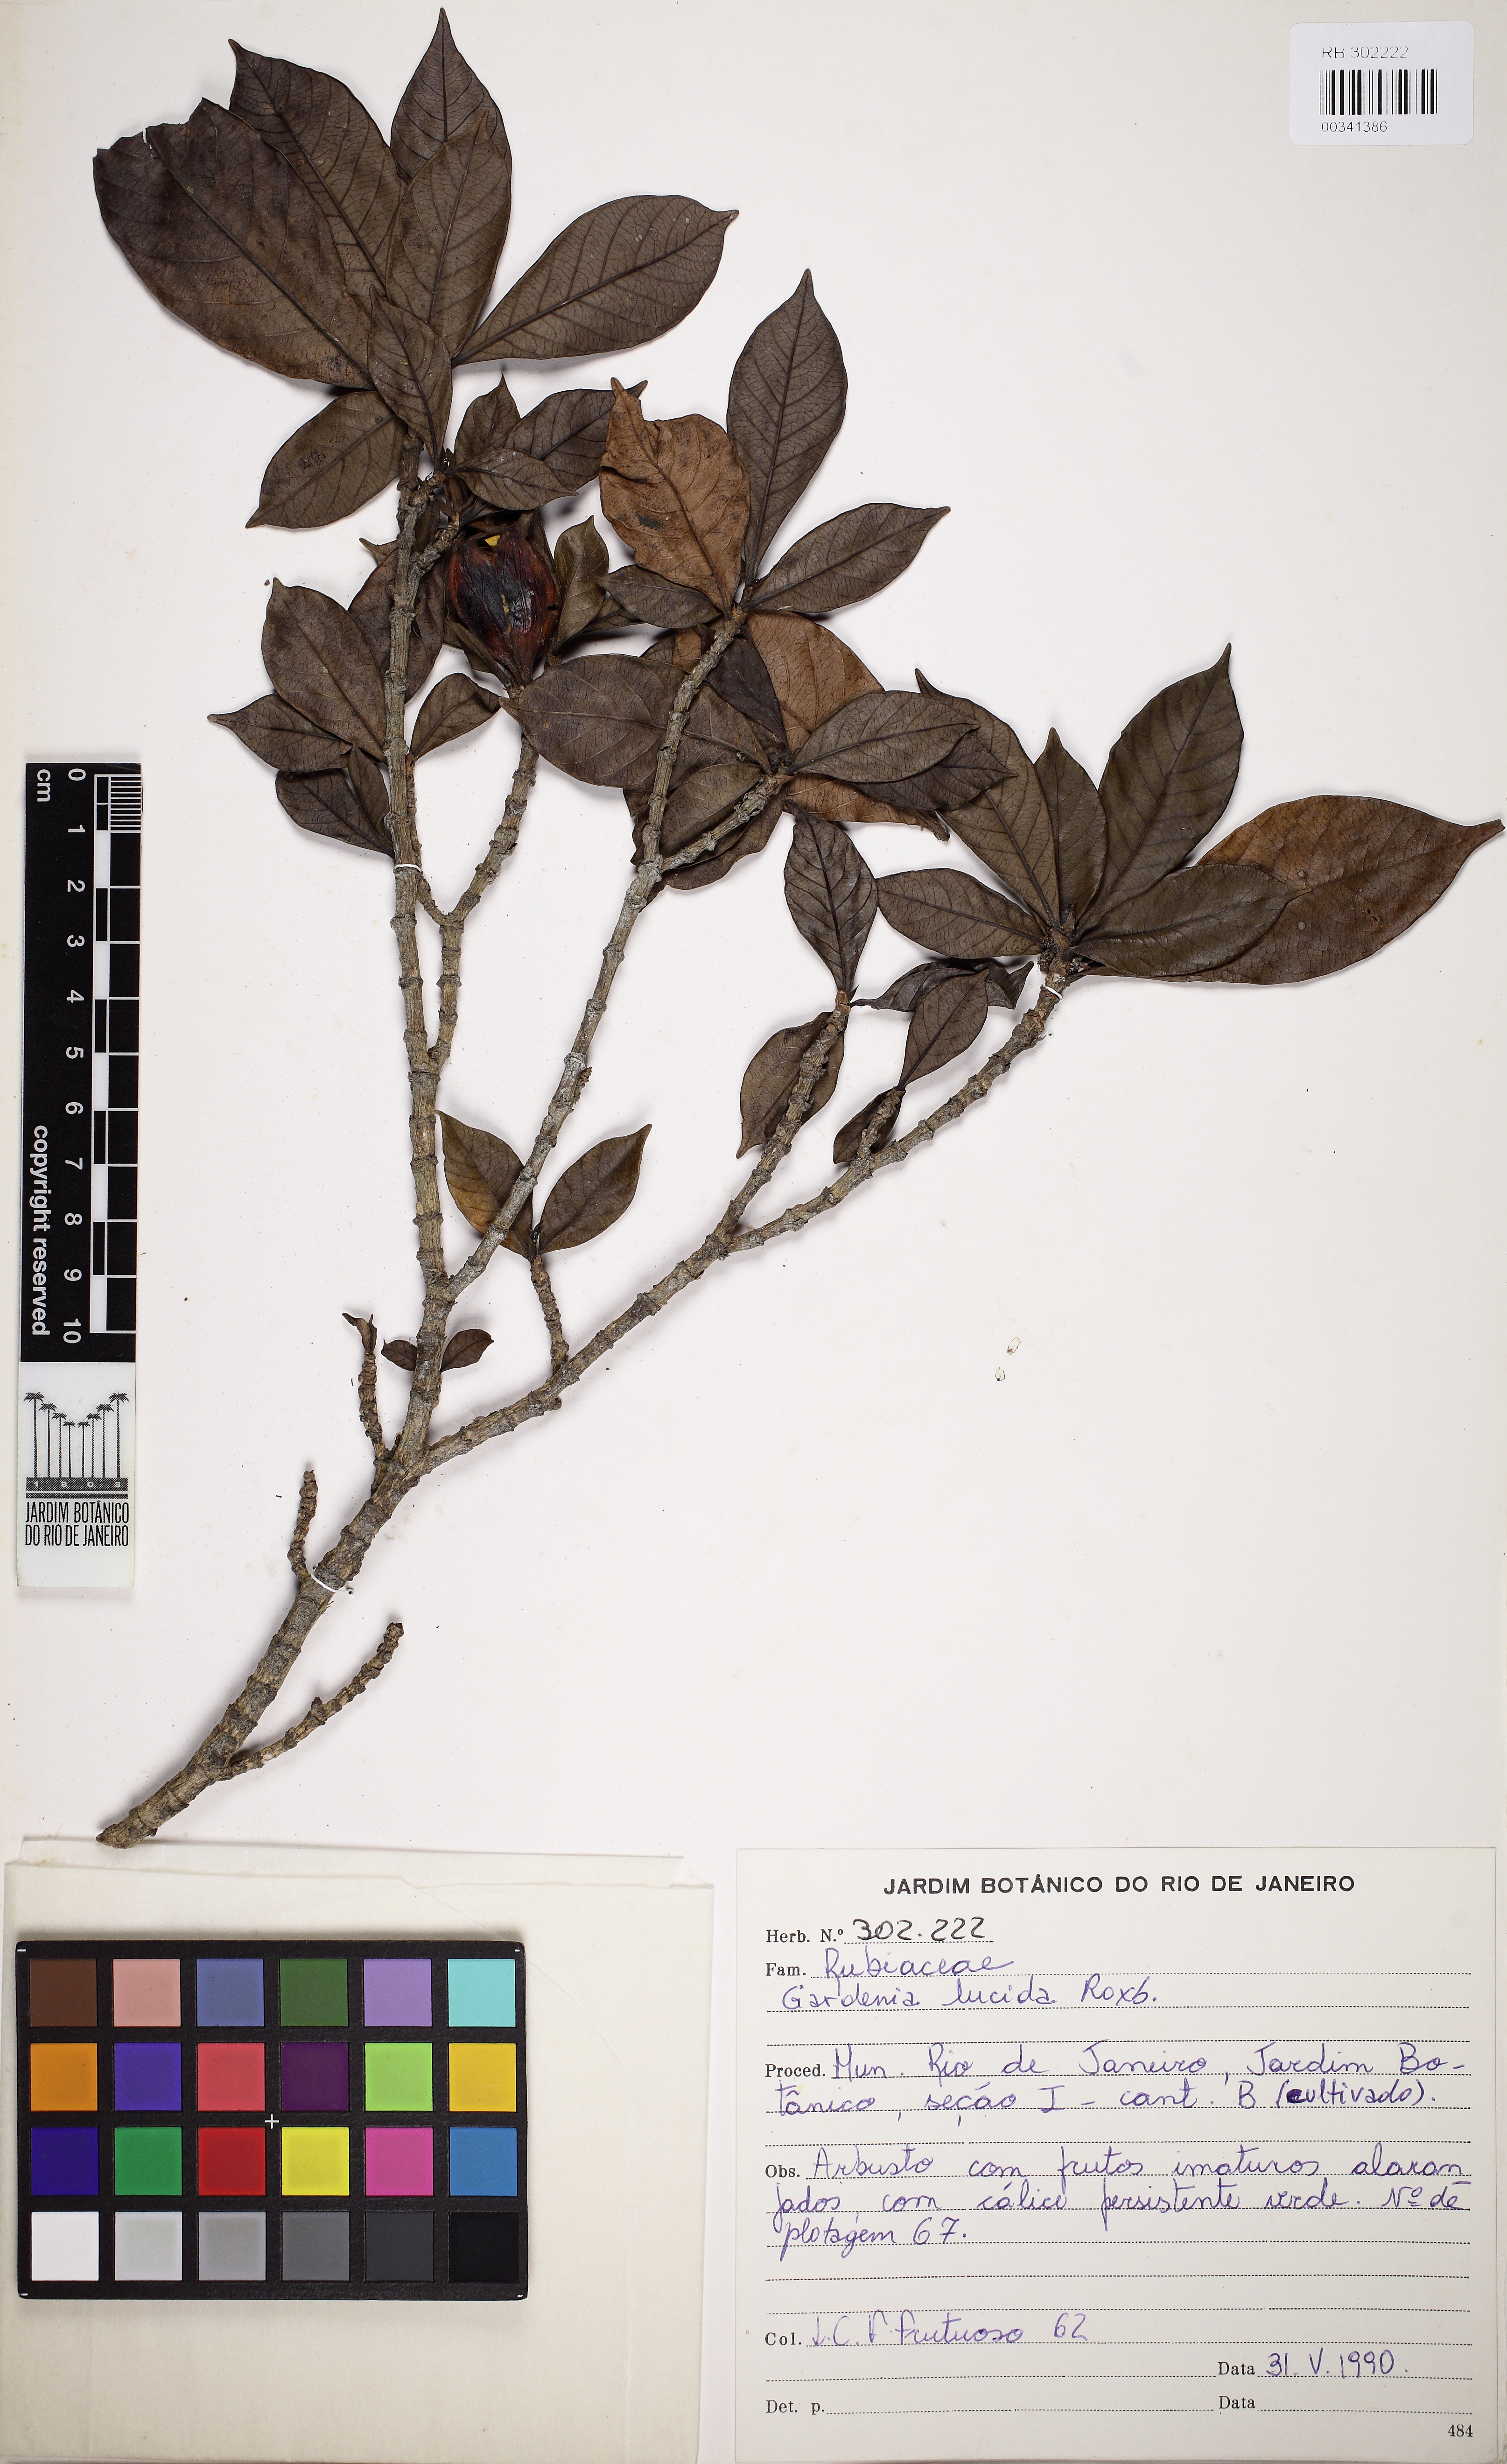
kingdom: Plantae
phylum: Tracheophyta
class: Magnoliopsida
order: Gentianales
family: Rubiaceae
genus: Gardenia
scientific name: Gardenia resinifera
